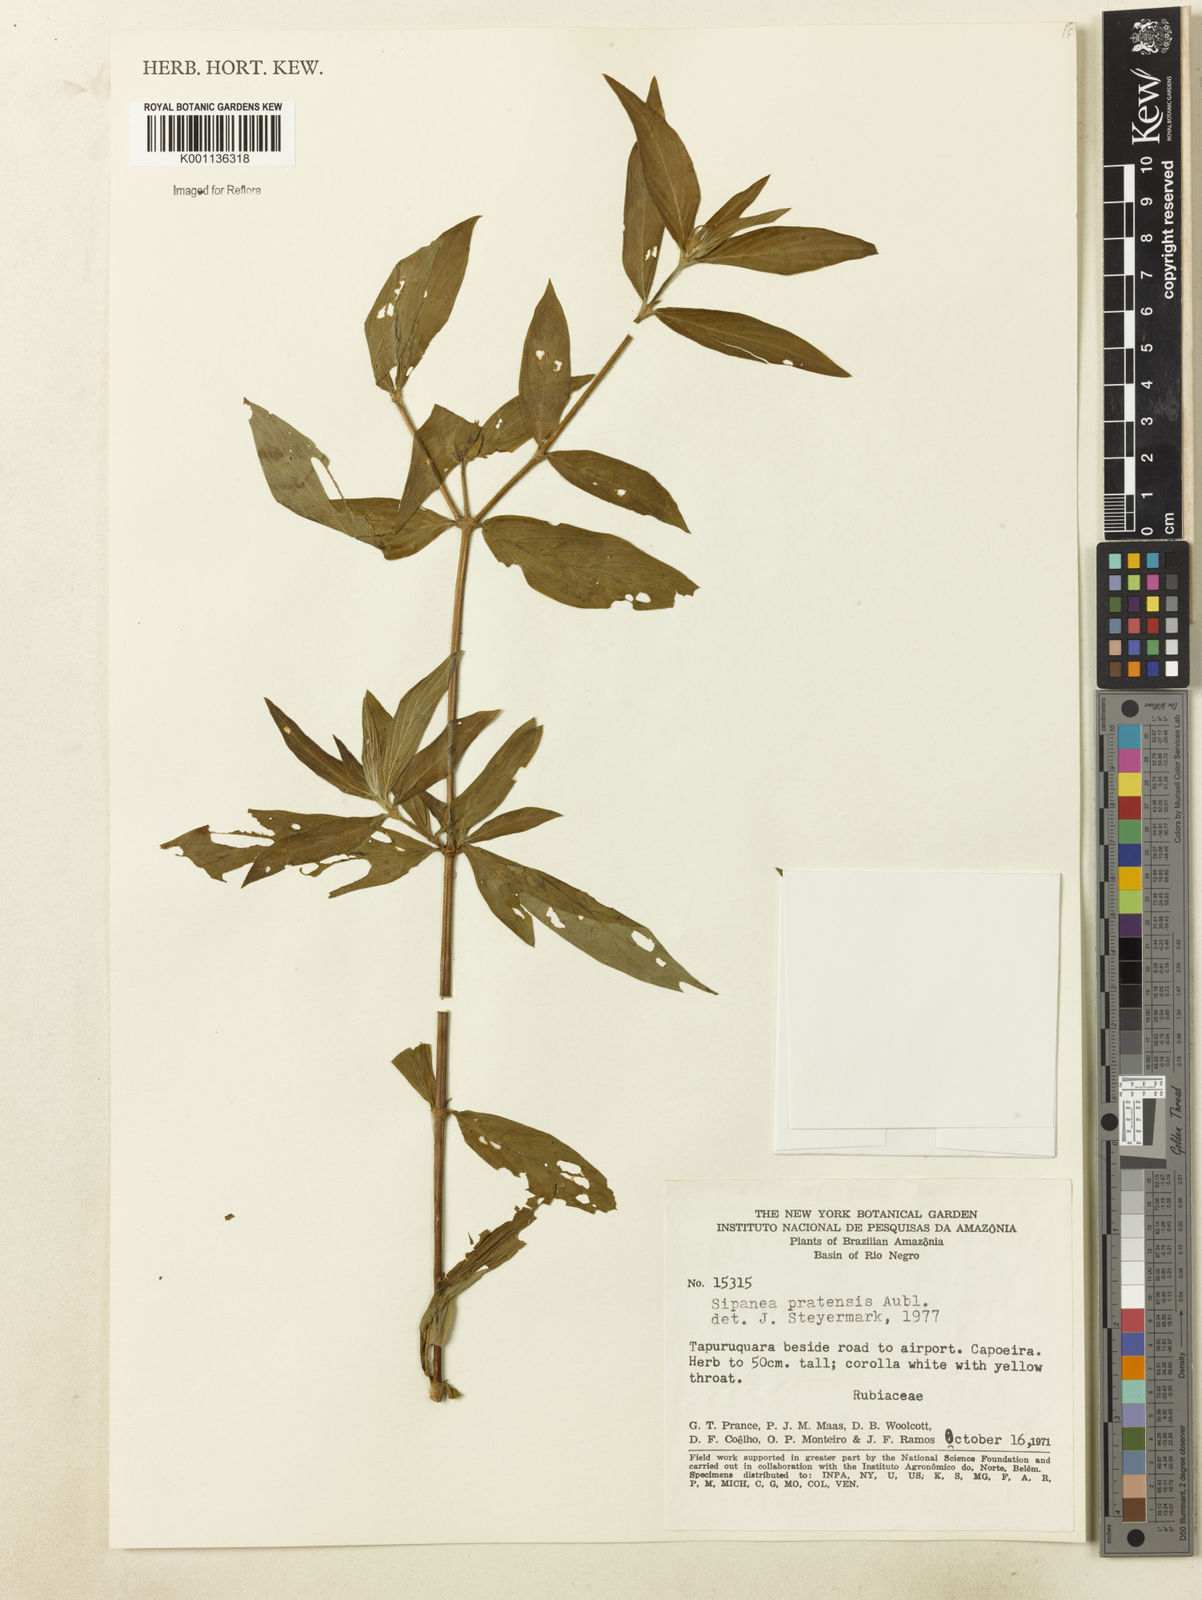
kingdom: Plantae
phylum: Tracheophyta
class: Magnoliopsida
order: Gentianales
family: Rubiaceae
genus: Sipanea
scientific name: Sipanea pratensis
